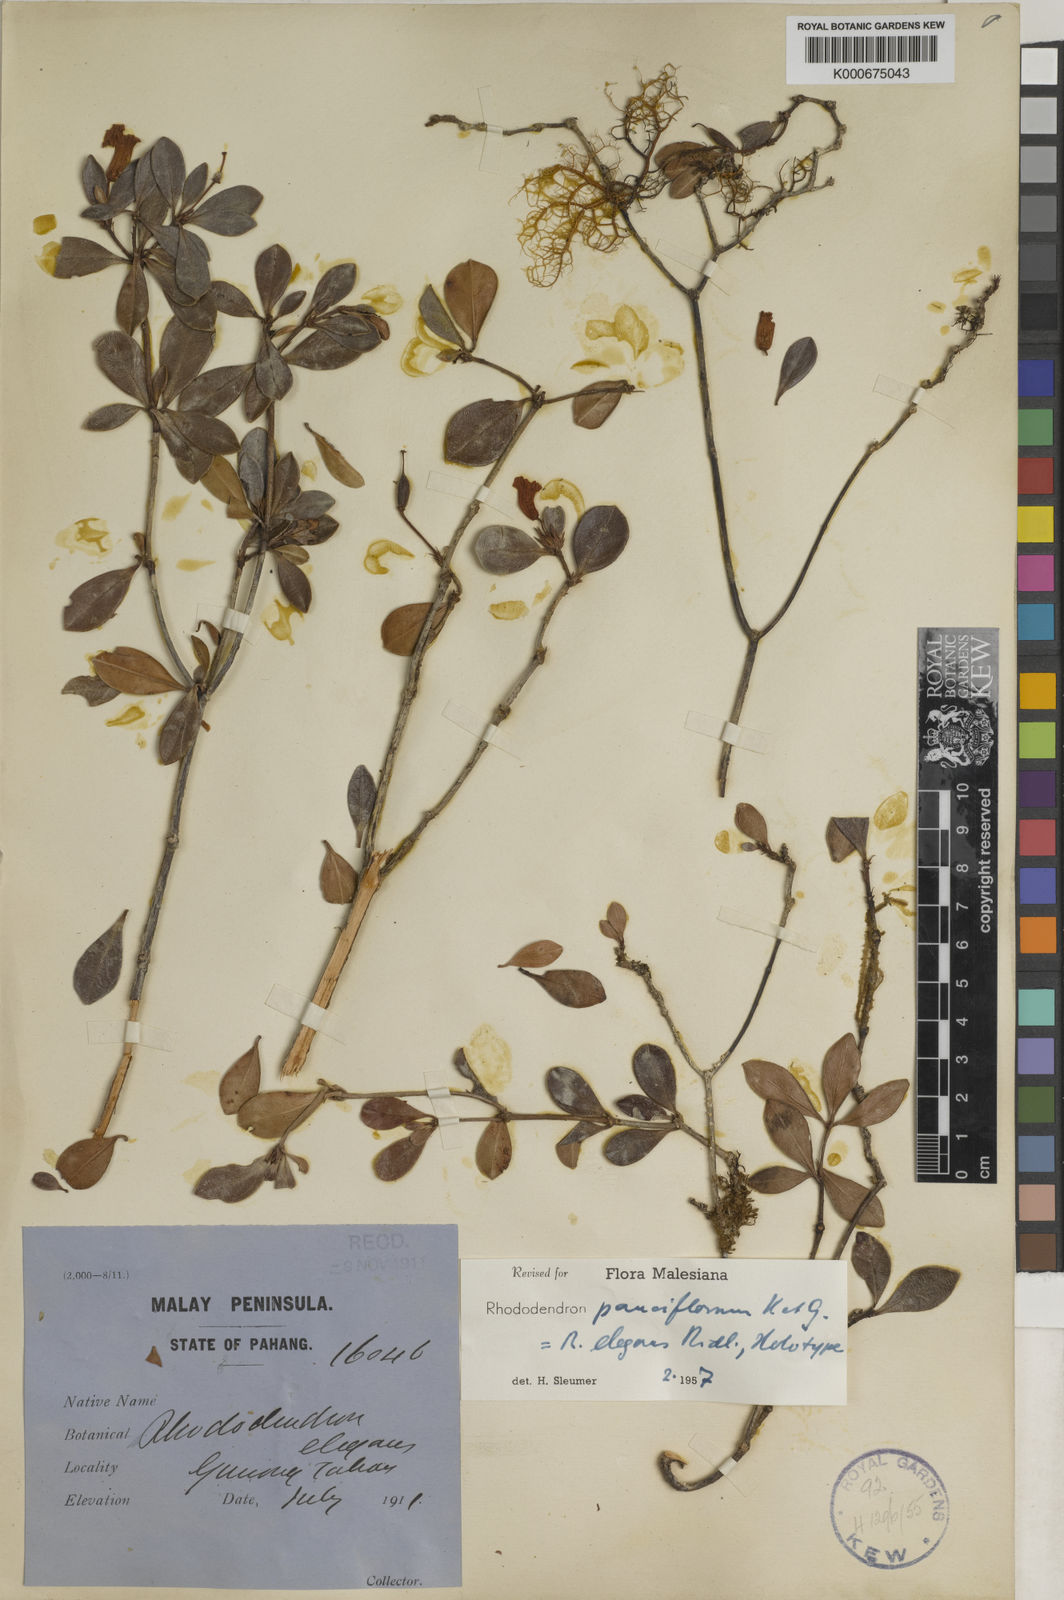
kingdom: Plantae
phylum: Tracheophyta
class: Magnoliopsida
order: Ericales
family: Ericaceae
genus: Rhododendron
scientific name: Rhododendron pauciflorum
